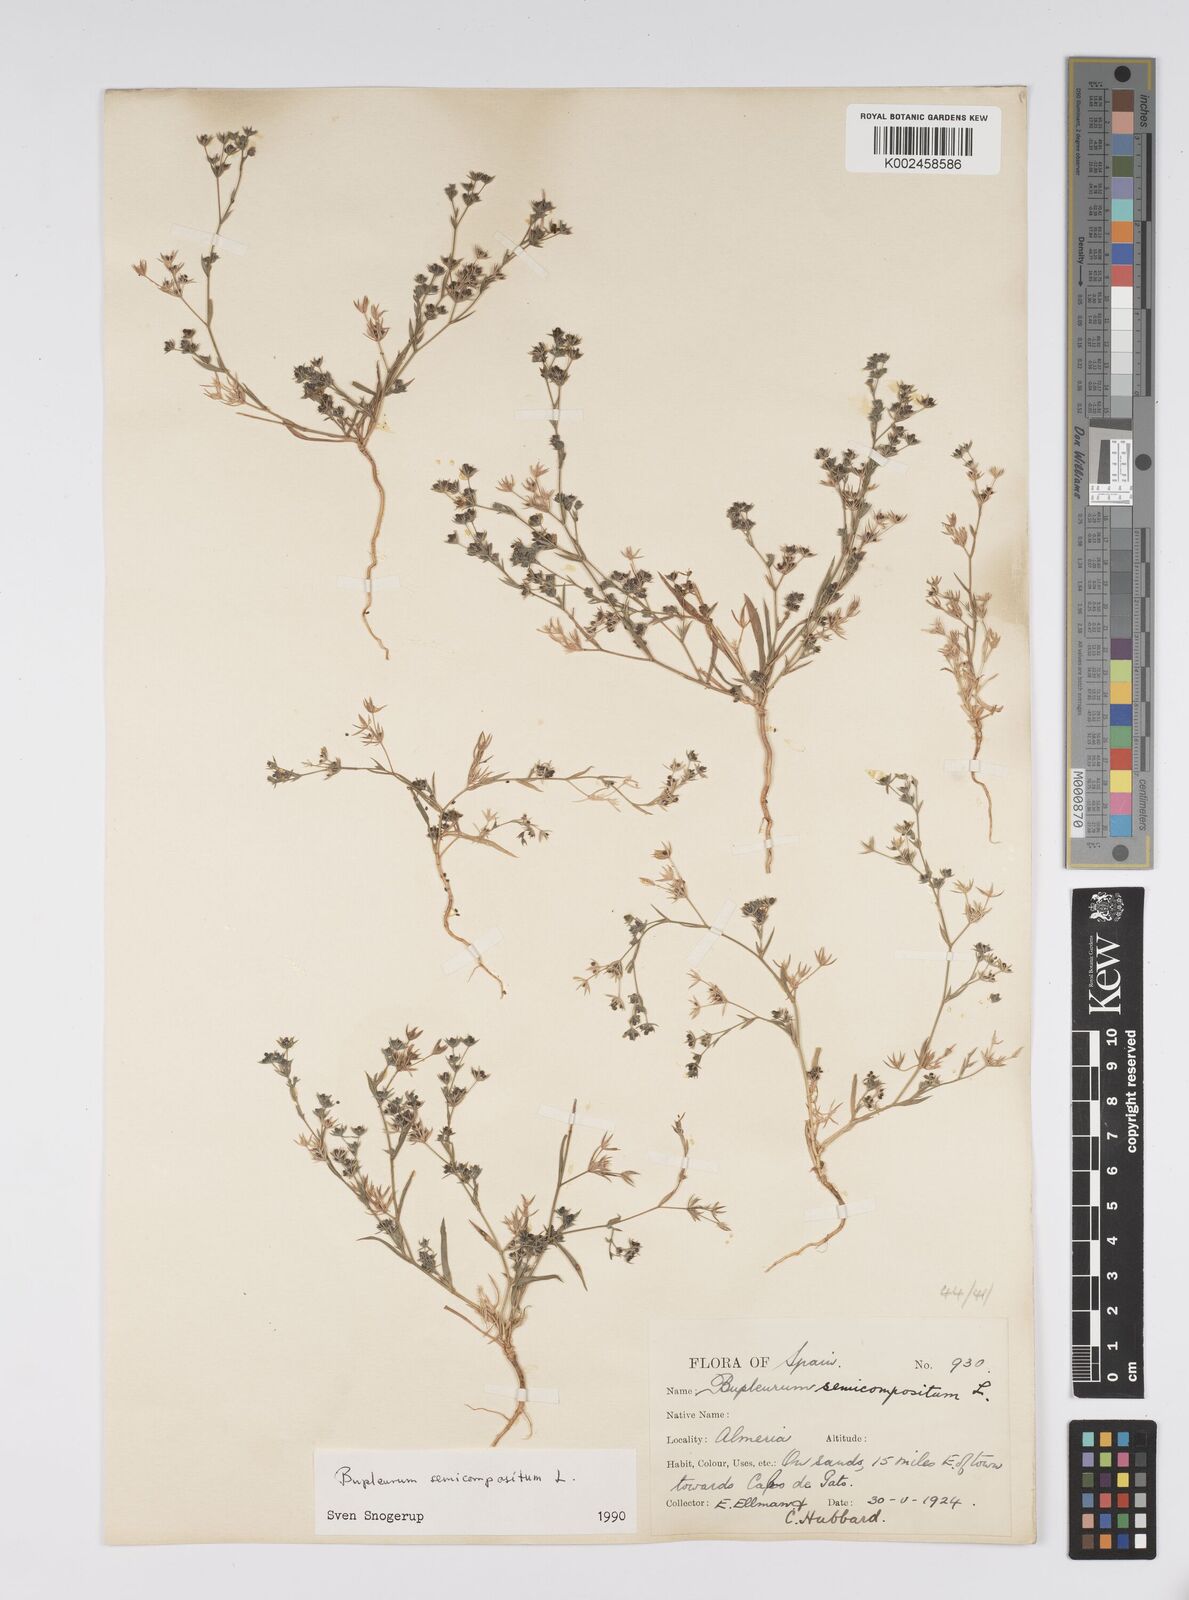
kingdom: Plantae
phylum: Tracheophyta
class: Magnoliopsida
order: Apiales
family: Apiaceae
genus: Bupleurum
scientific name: Bupleurum semicompositum
